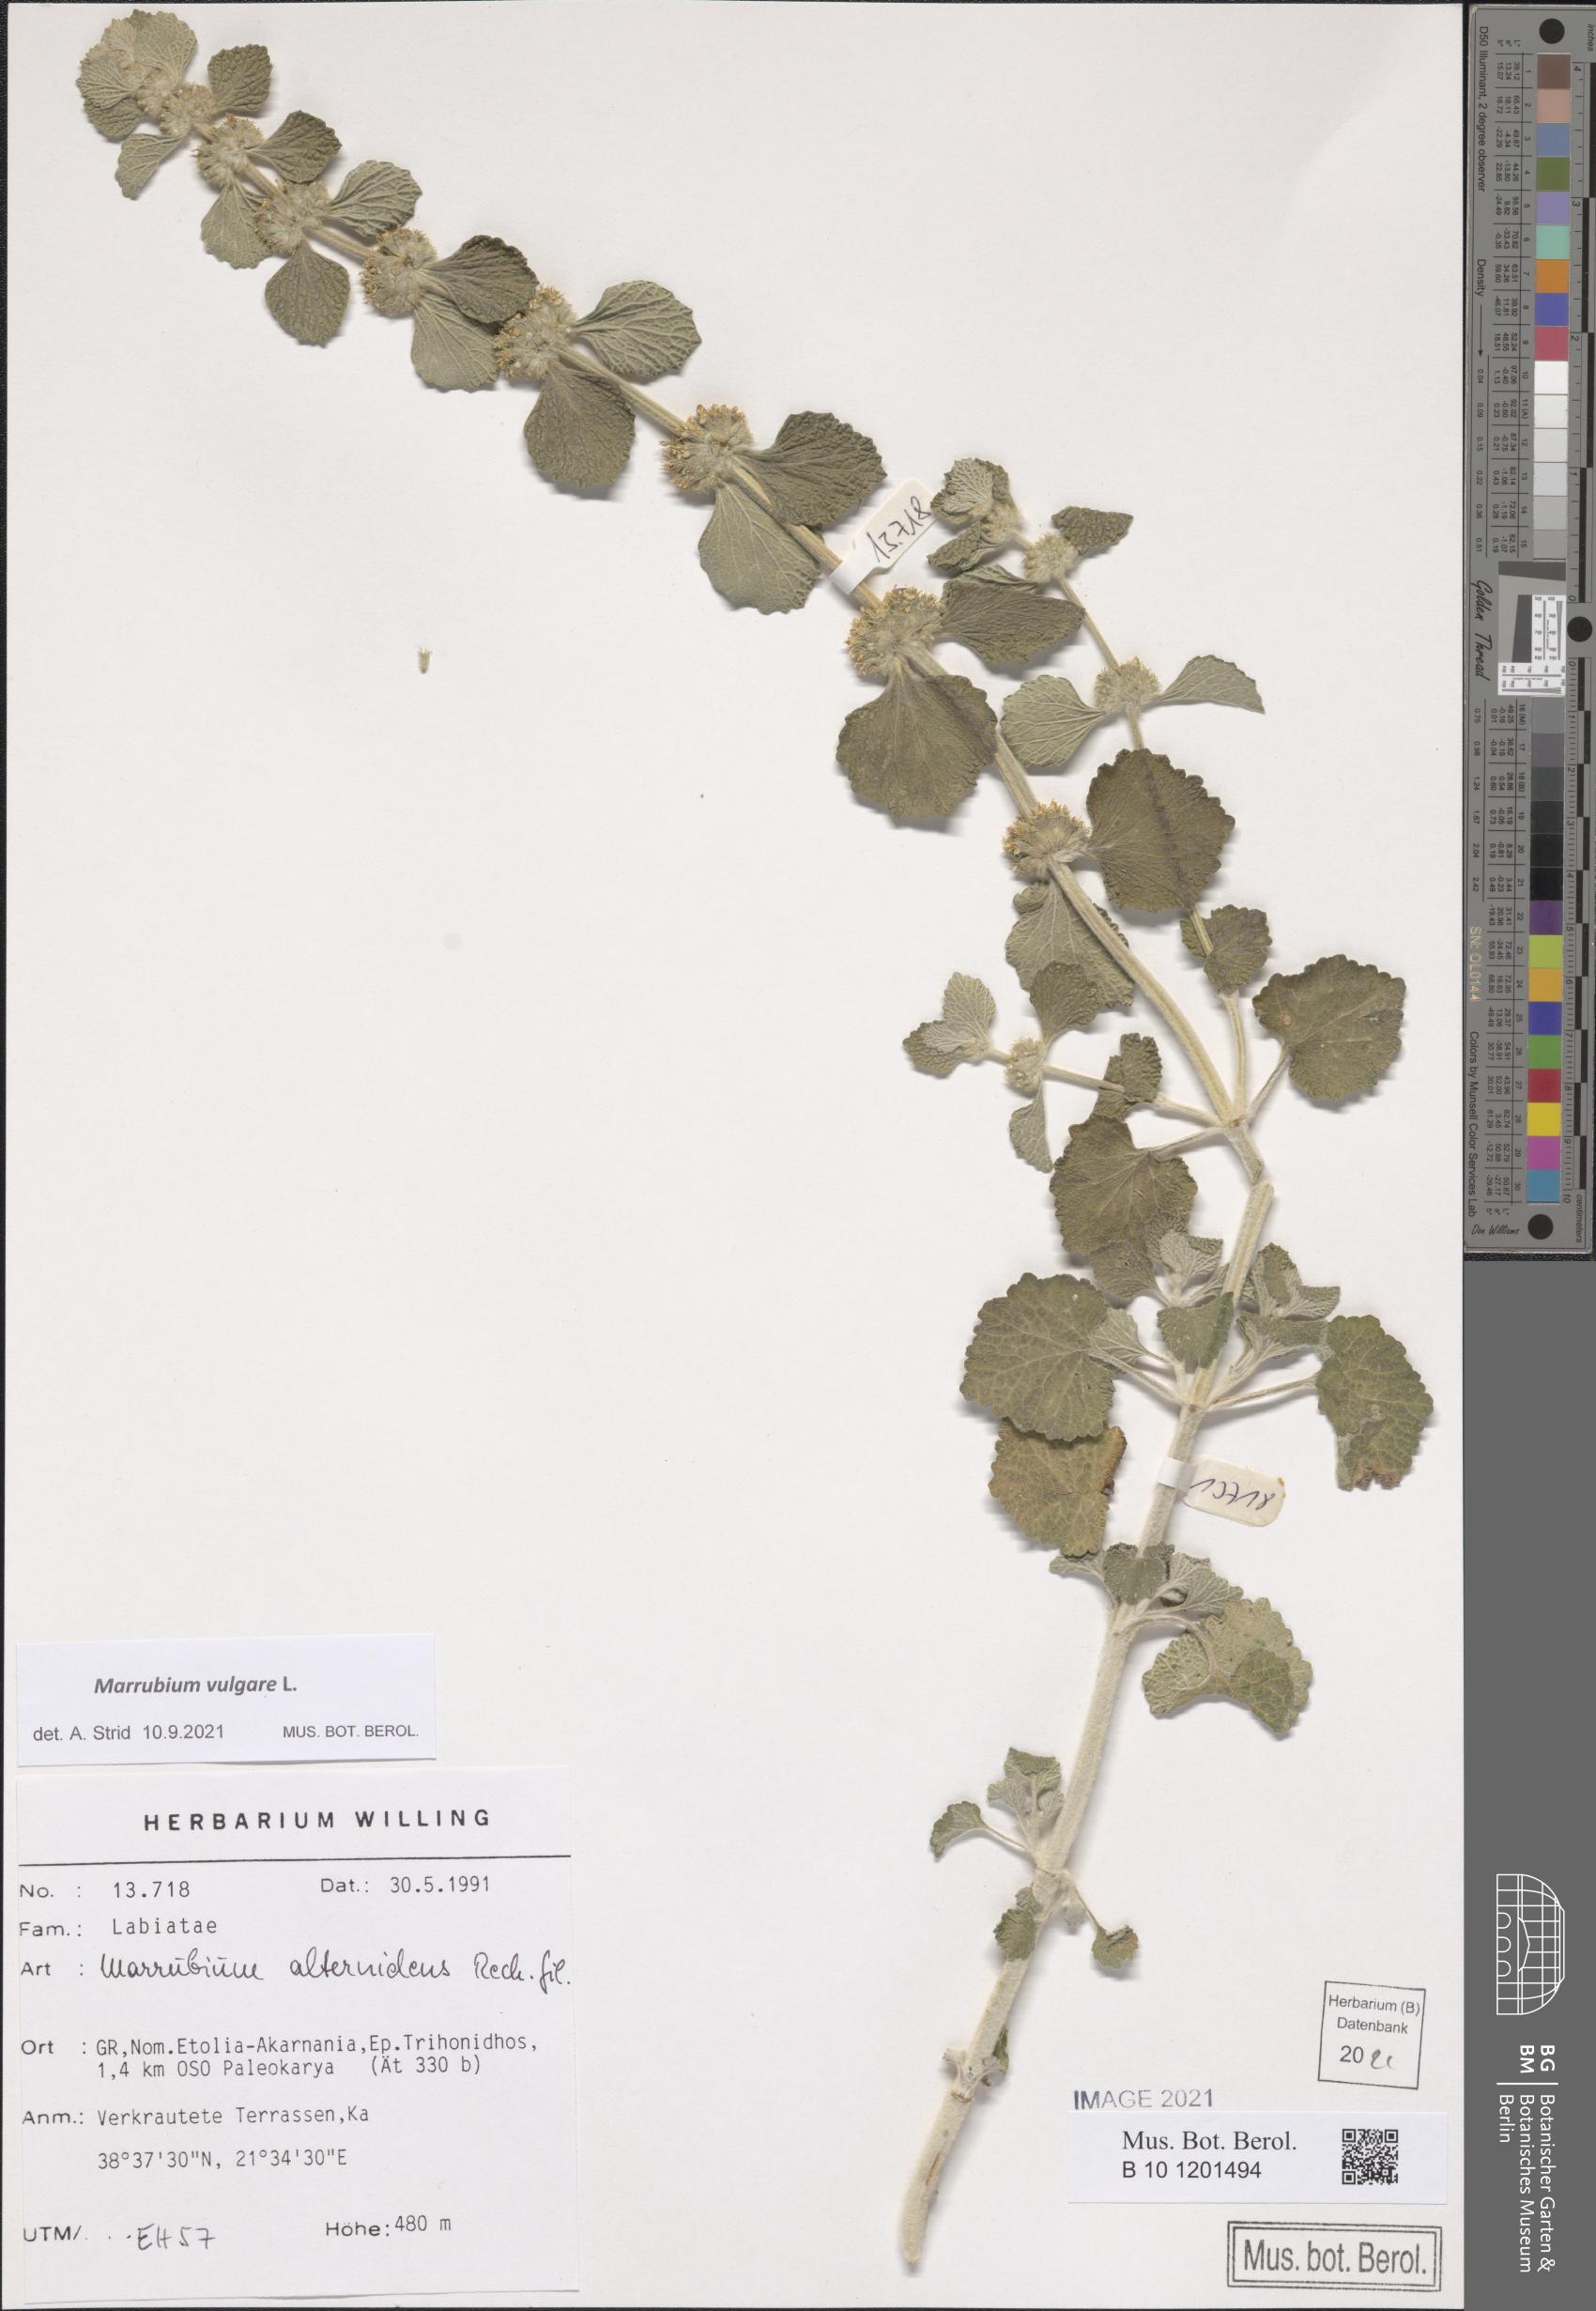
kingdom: Plantae
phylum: Tracheophyta
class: Magnoliopsida
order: Lamiales
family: Lamiaceae
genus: Marrubium
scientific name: Marrubium vulgare
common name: Horehound
